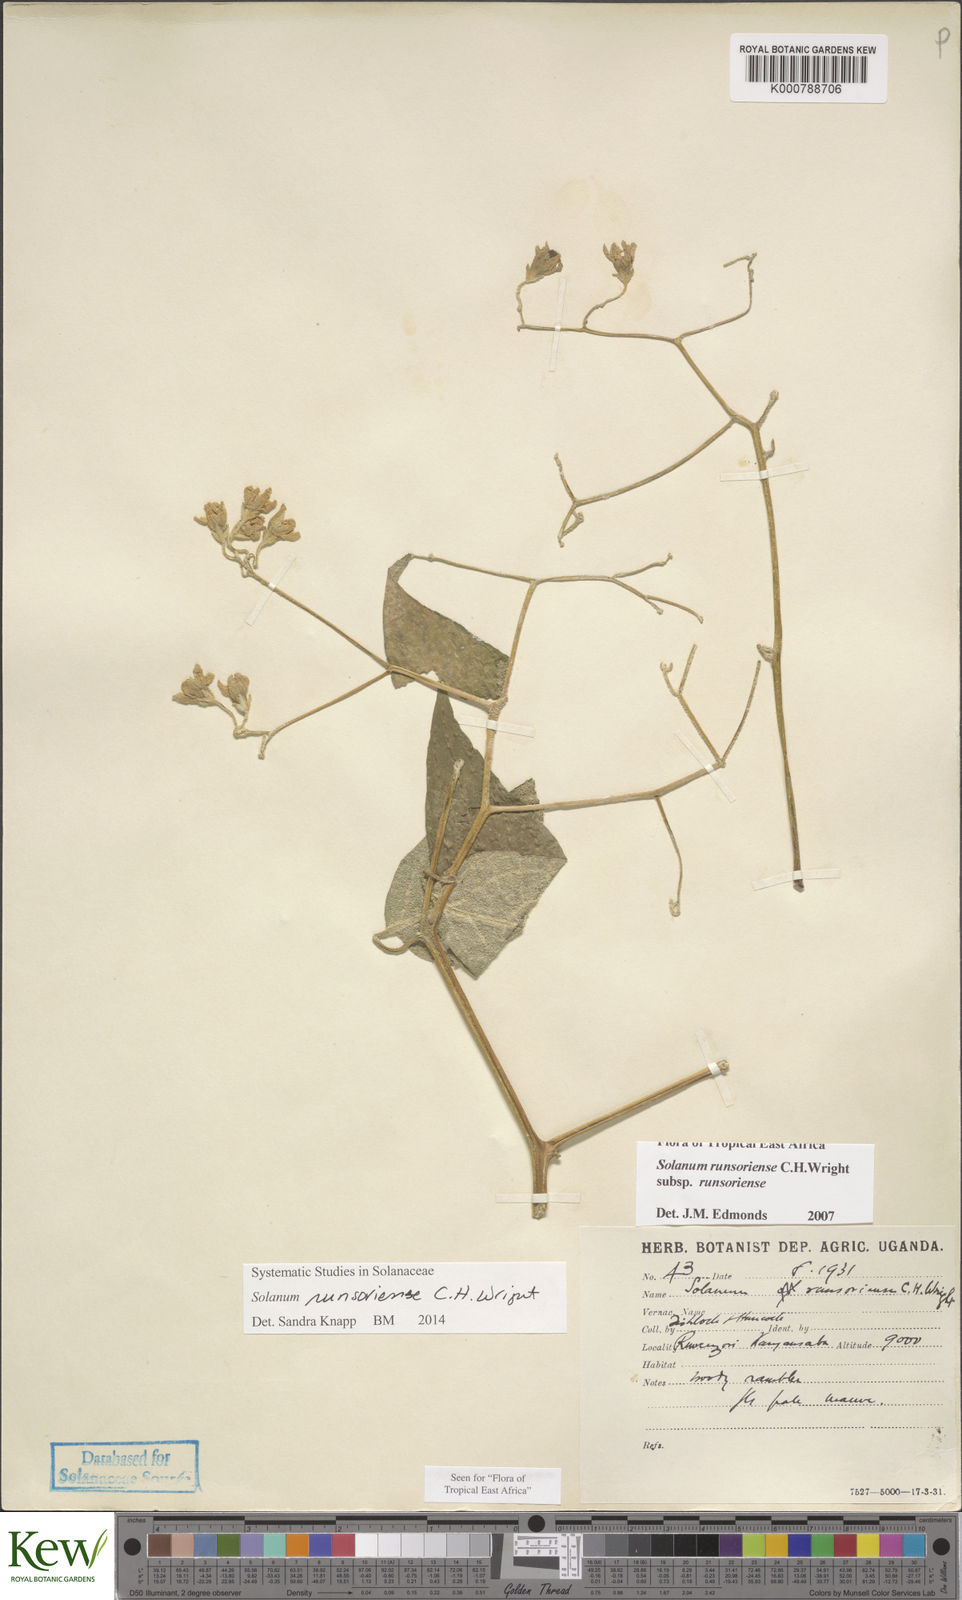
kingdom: Plantae
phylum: Tracheophyta
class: Magnoliopsida
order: Solanales
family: Solanaceae
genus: Solanum
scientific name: Solanum runsoriense
